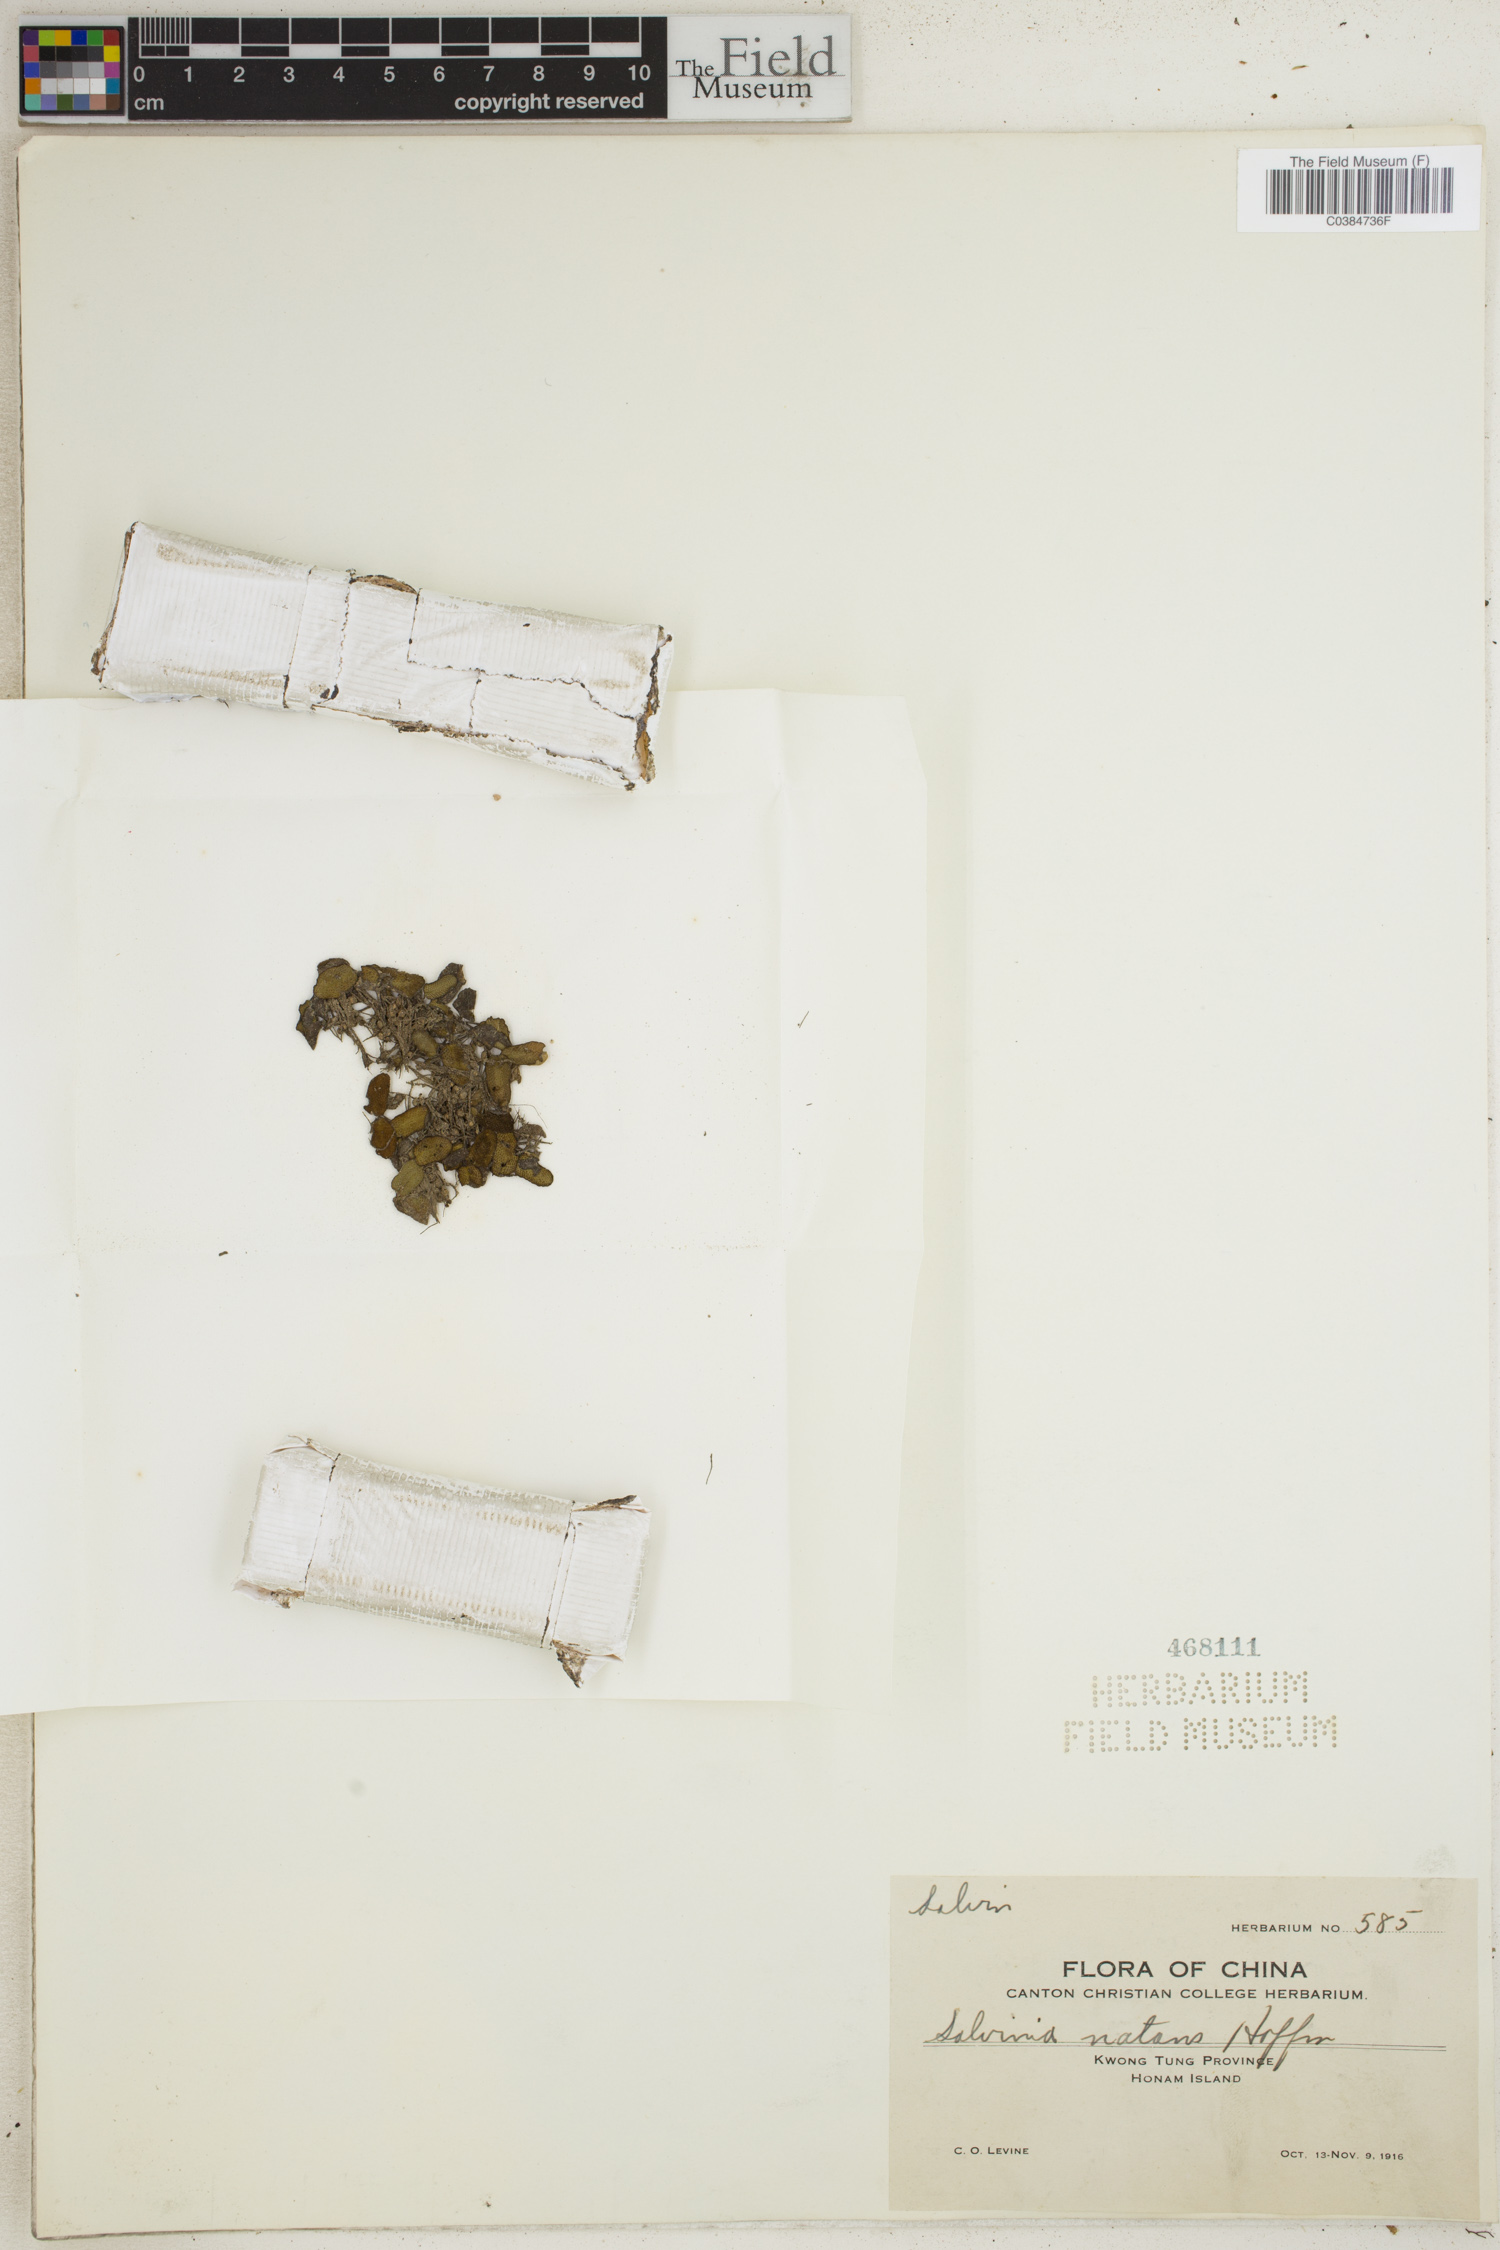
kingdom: Plantae
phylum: Tracheophyta
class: Polypodiopsida
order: Salviniales
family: Salviniaceae
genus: Salvinia
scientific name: Salvinia natans
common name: Floating fern
